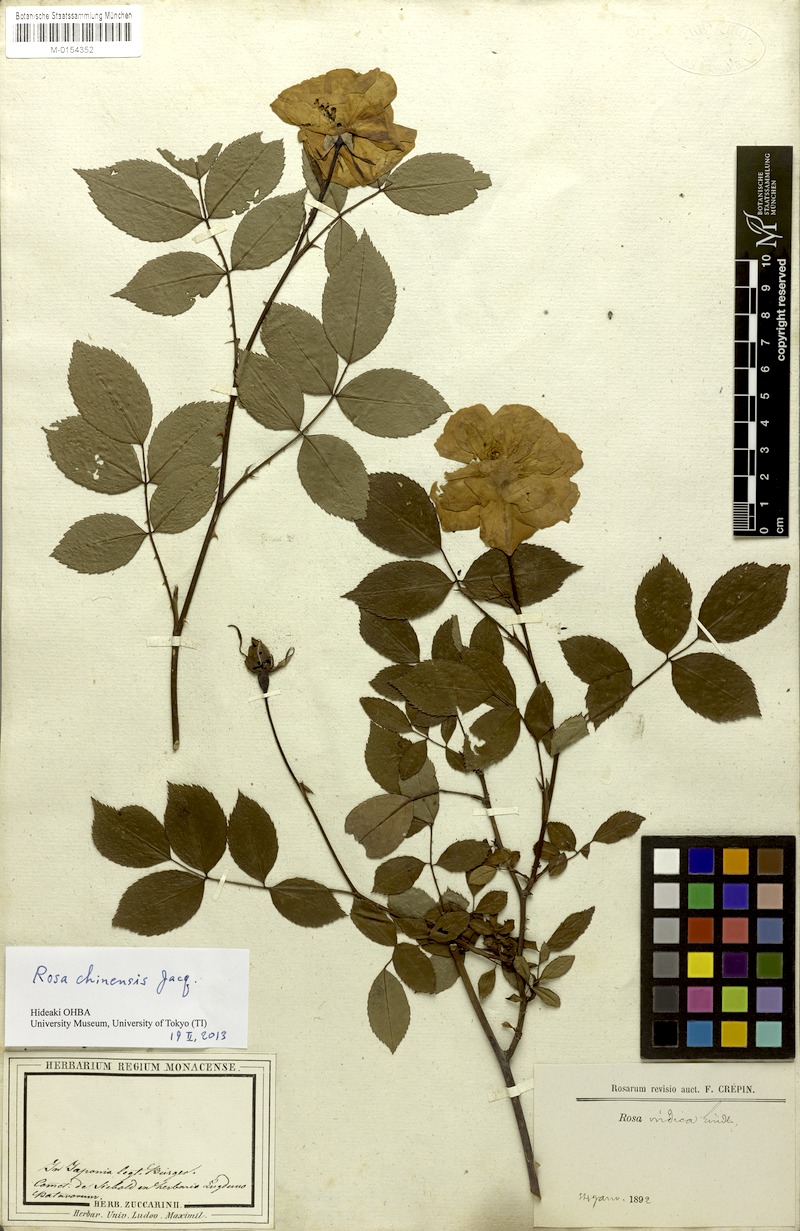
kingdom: Plantae
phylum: Tracheophyta
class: Magnoliopsida
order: Rosales
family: Rosaceae
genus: Rosa
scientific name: Rosa chinensis
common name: China rose
